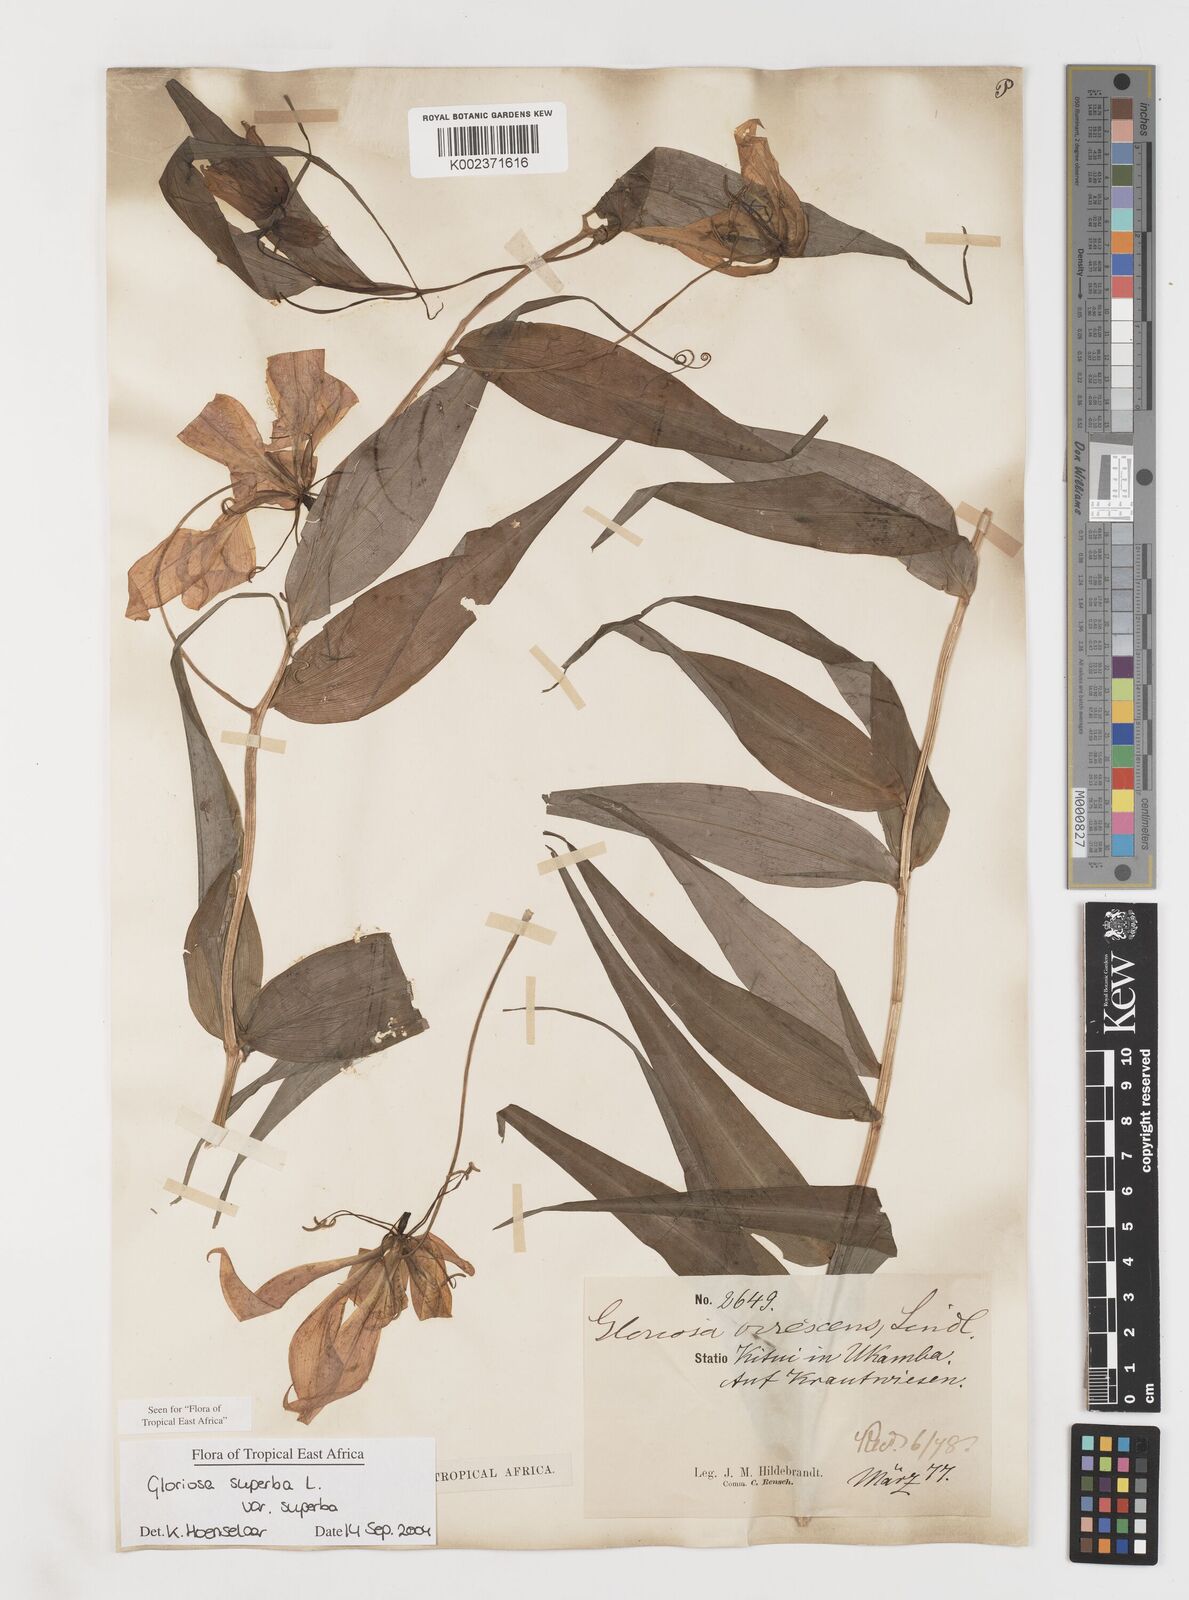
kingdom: Plantae
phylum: Tracheophyta
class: Liliopsida
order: Liliales
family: Colchicaceae
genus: Gloriosa
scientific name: Gloriosa simplex
